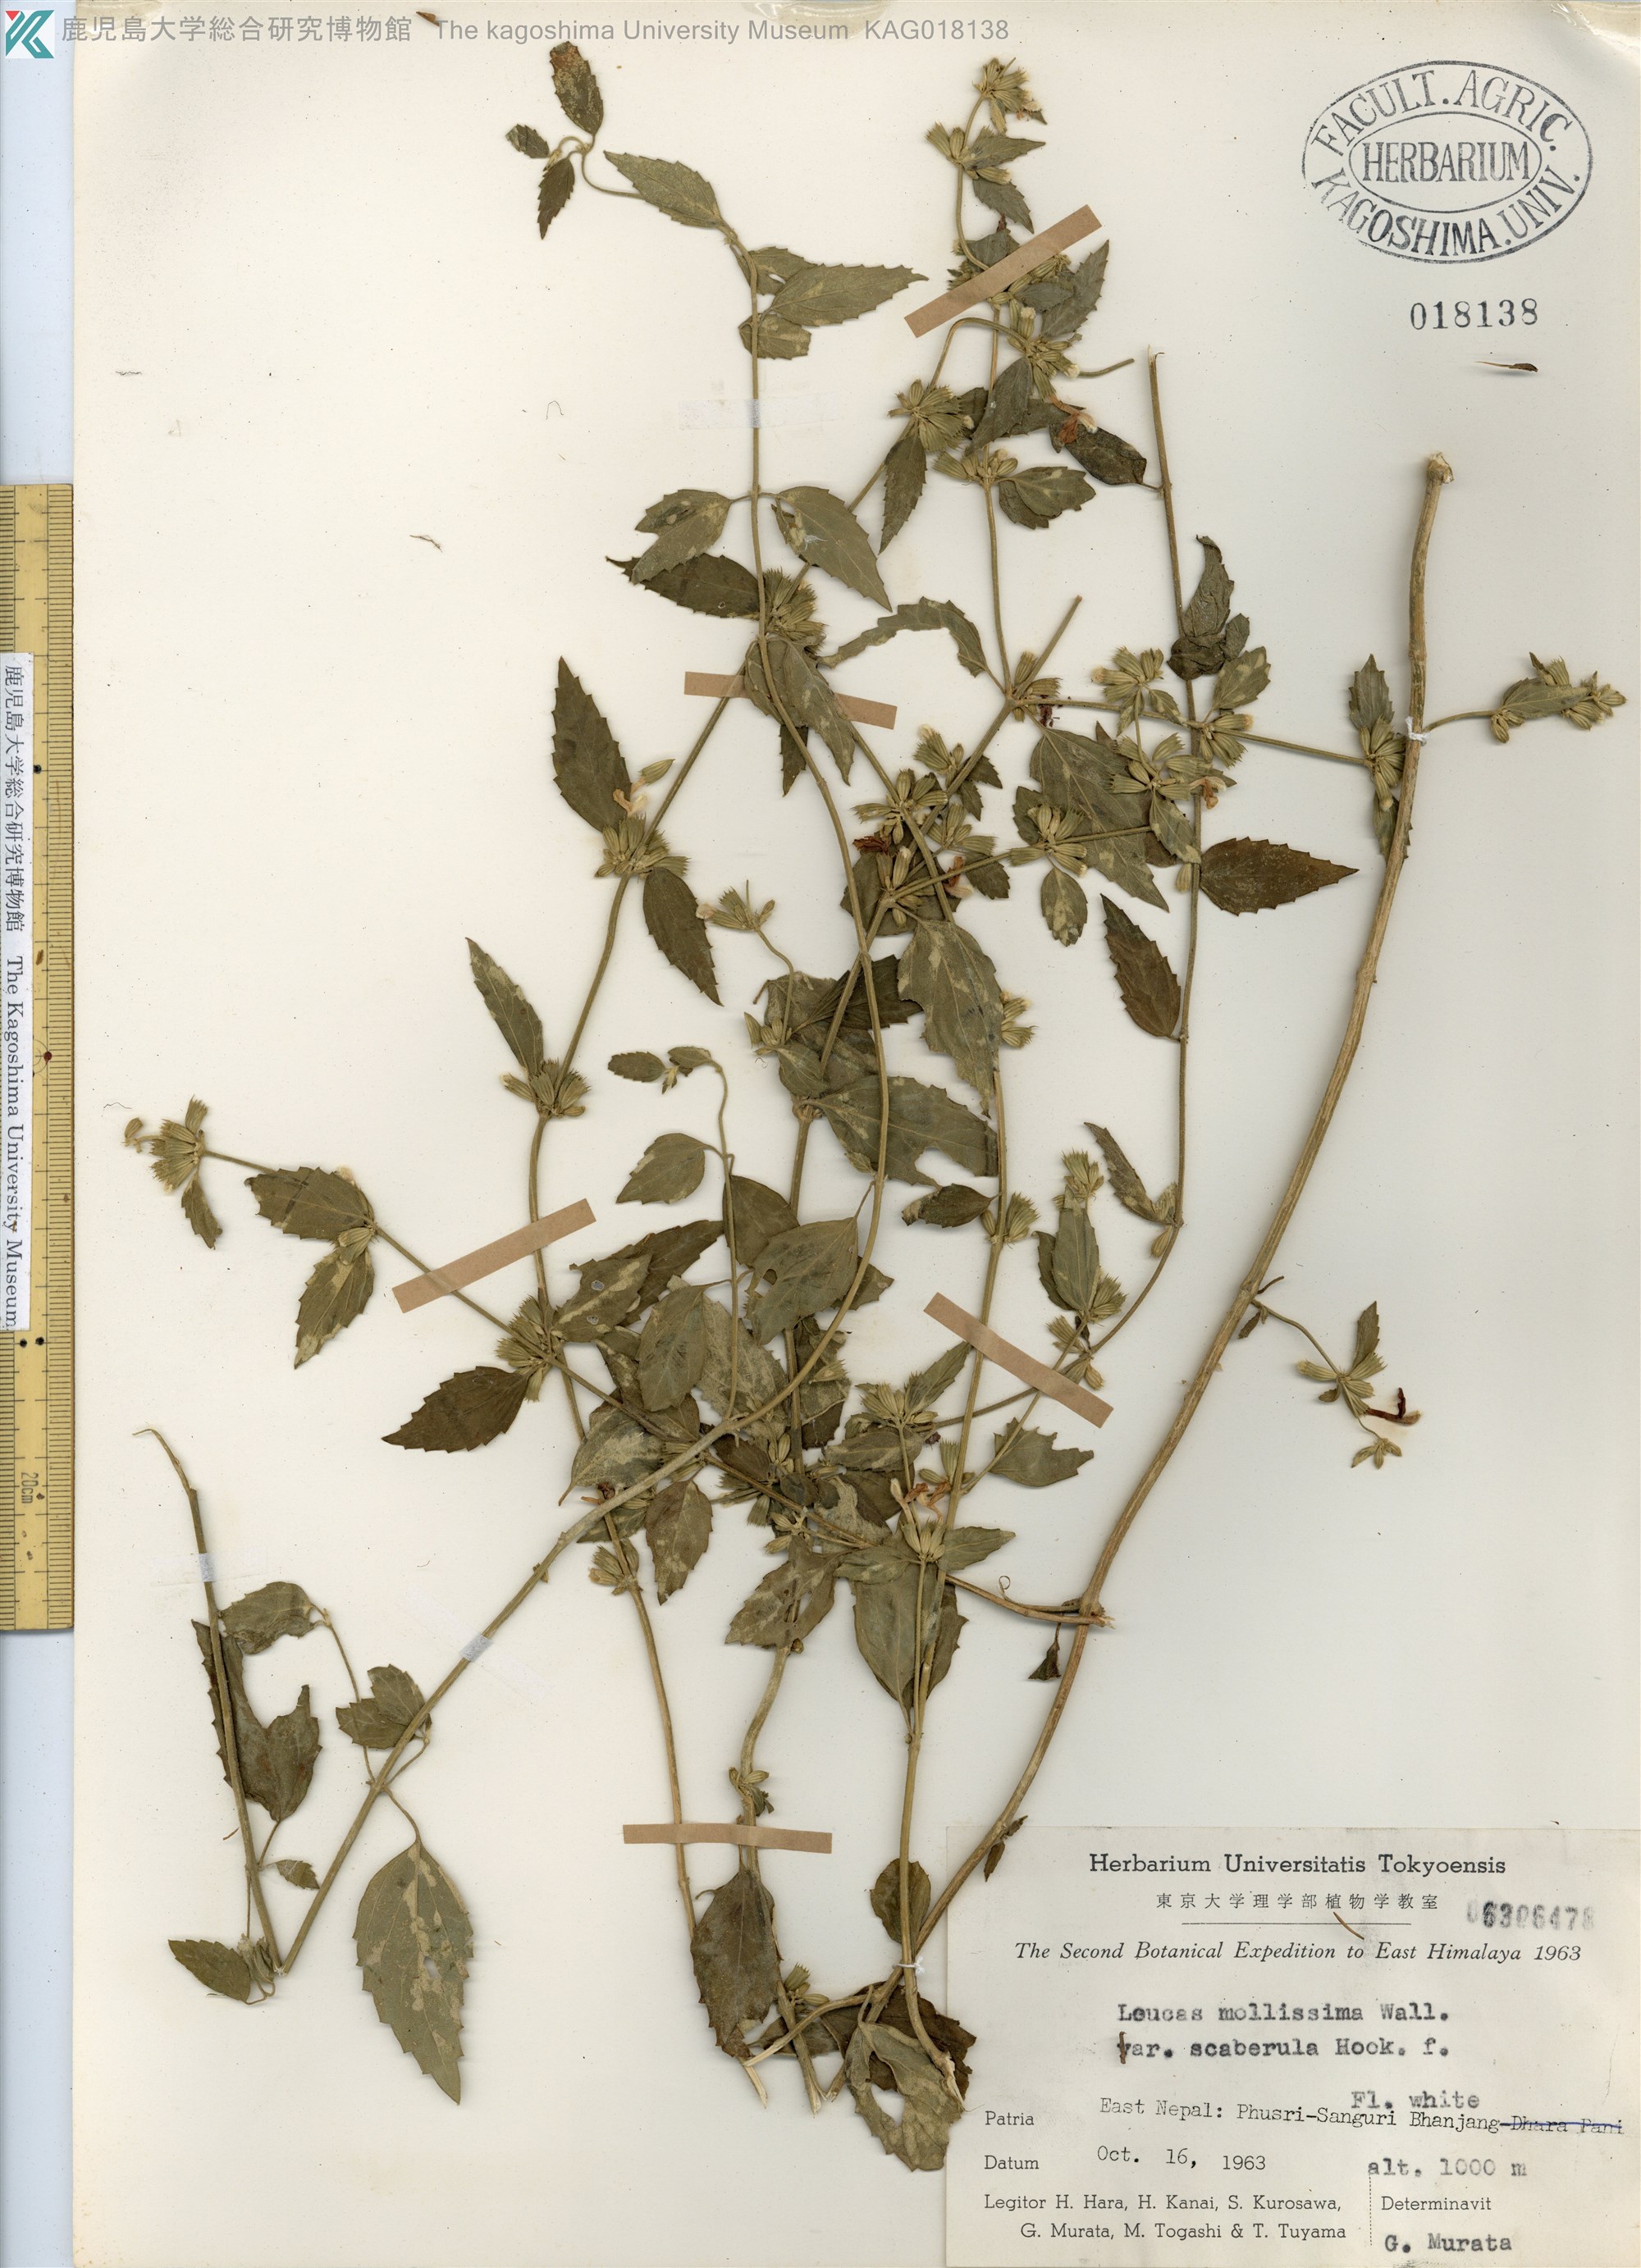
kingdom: Plantae
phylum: Tracheophyta
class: Magnoliopsida
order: Lamiales
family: Lamiaceae
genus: Leucas
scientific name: Leucas mollissima
